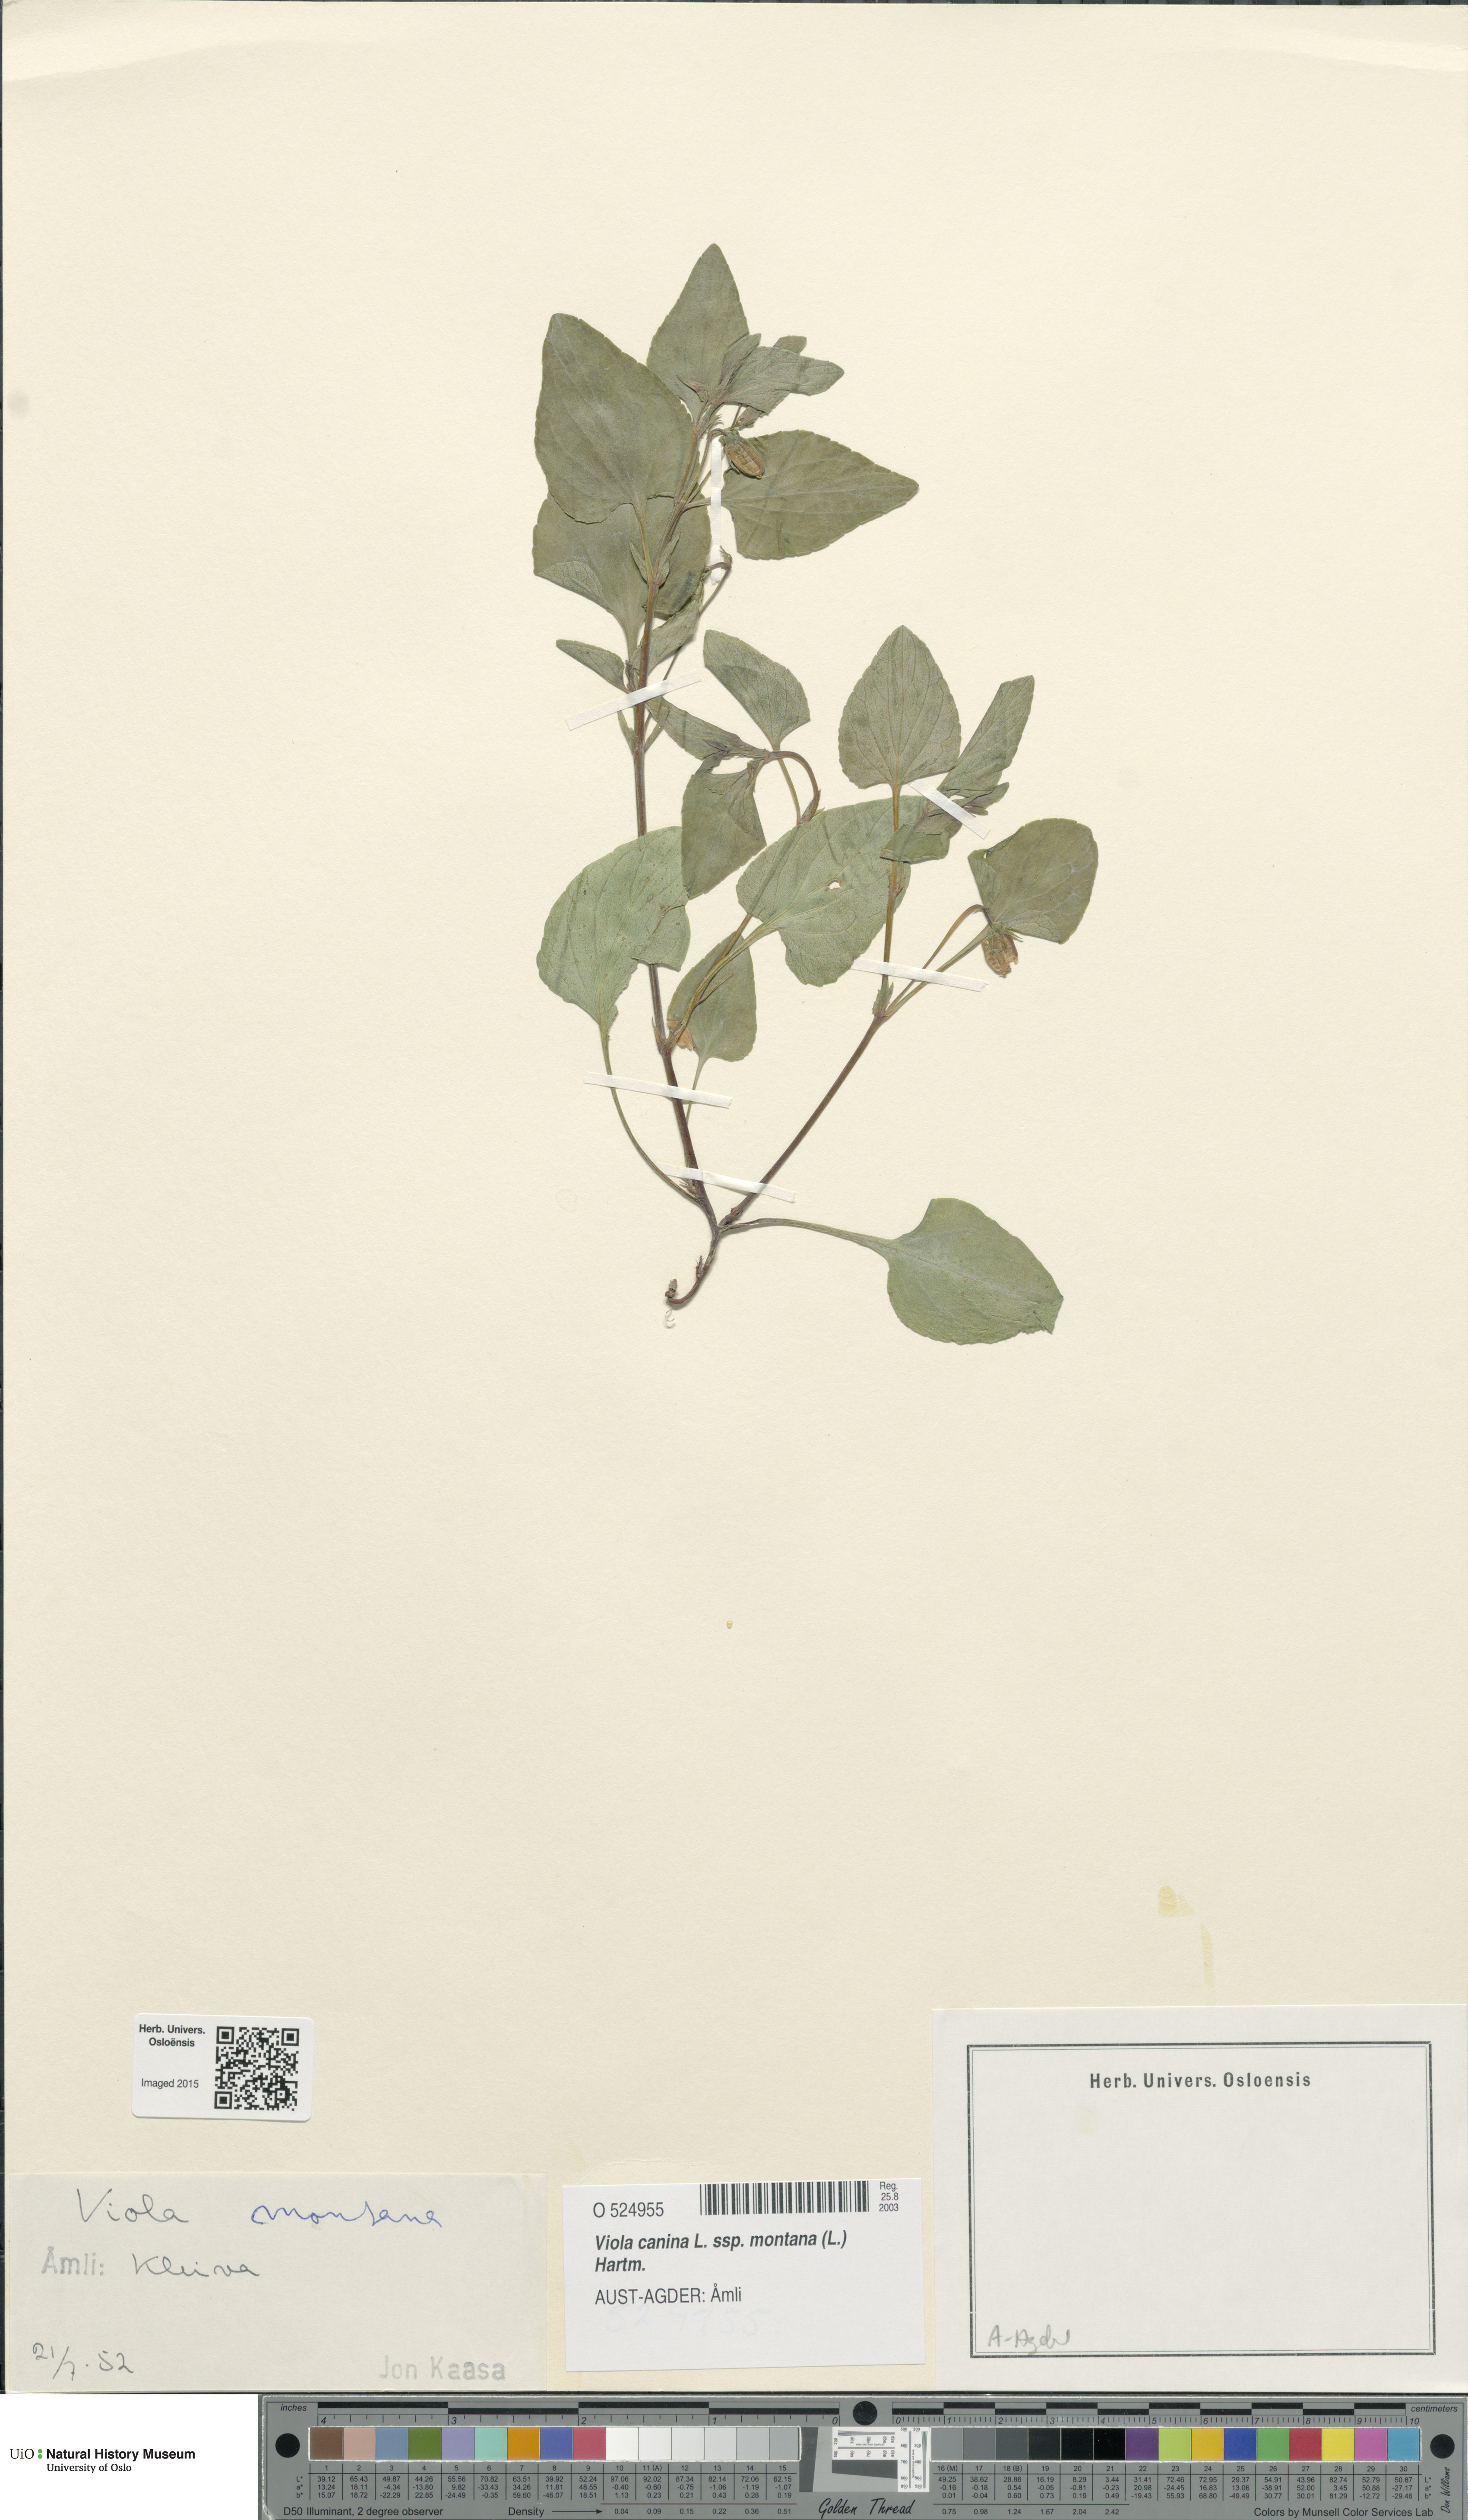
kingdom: Plantae
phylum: Tracheophyta
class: Magnoliopsida
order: Malpighiales
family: Violaceae
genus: Viola
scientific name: Viola ruppii
